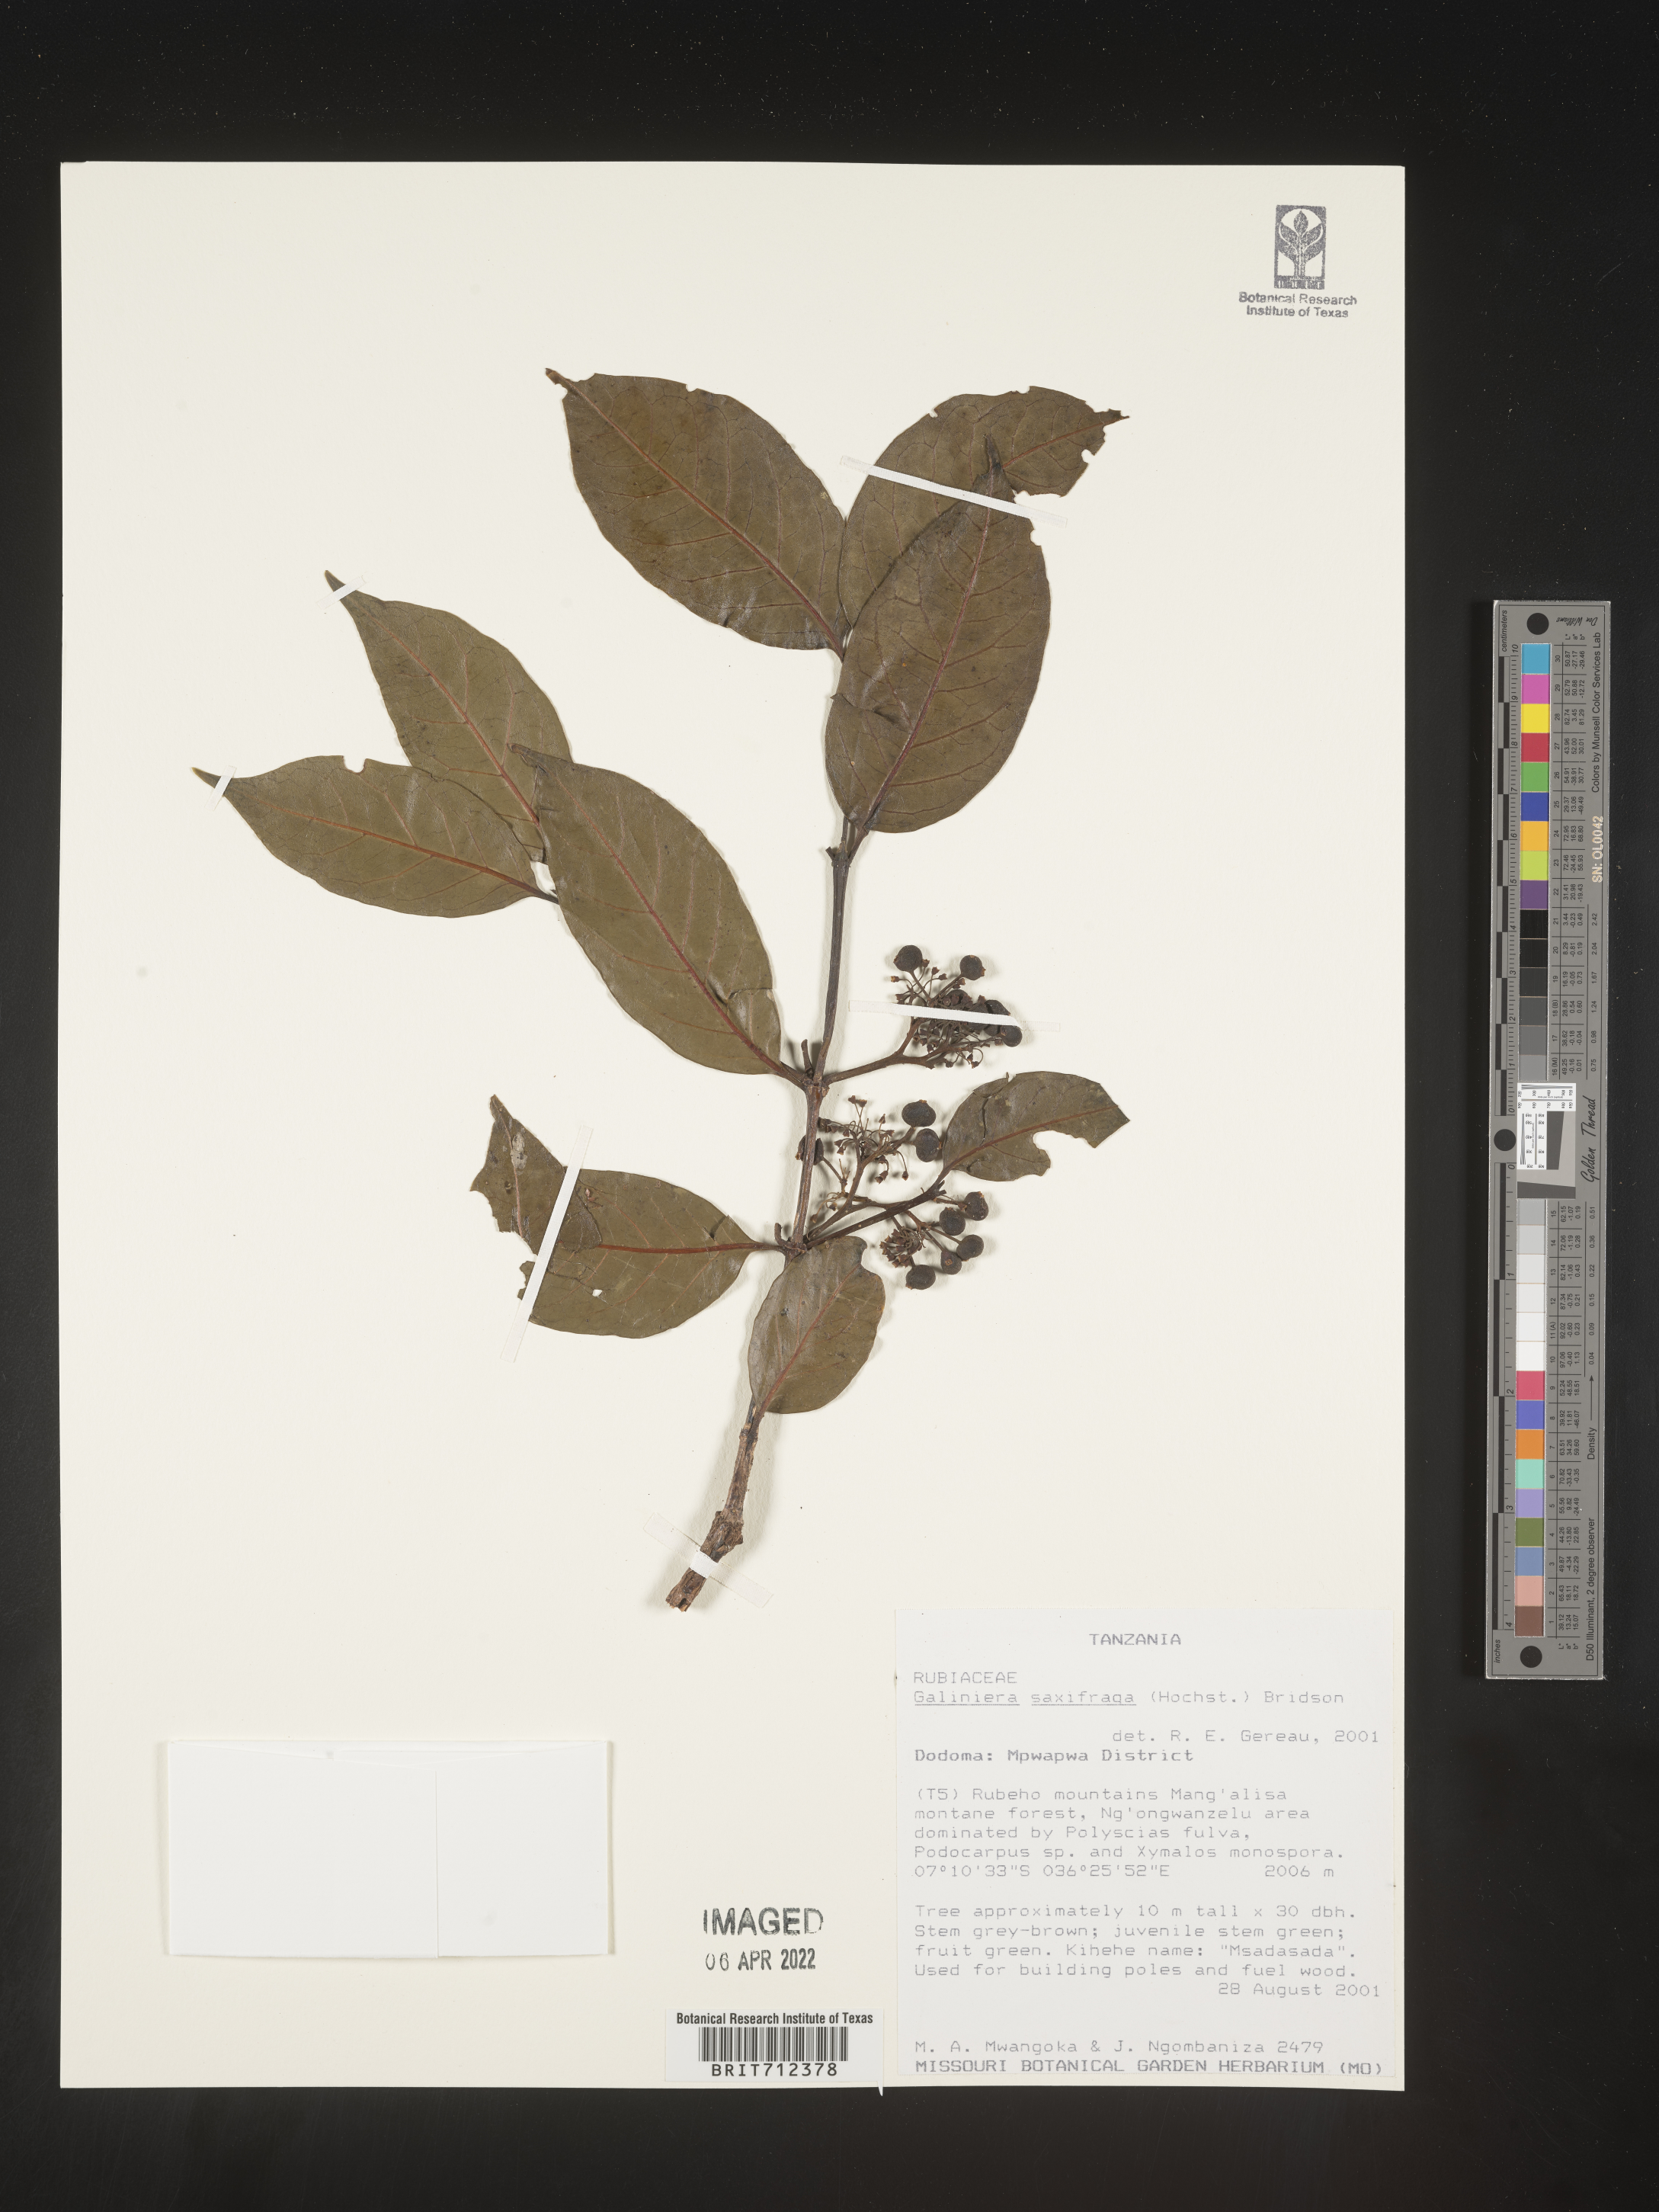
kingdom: Plantae
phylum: Tracheophyta
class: Magnoliopsida
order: Gentianales
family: Rubiaceae
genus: Galiniera
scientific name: Galiniera
